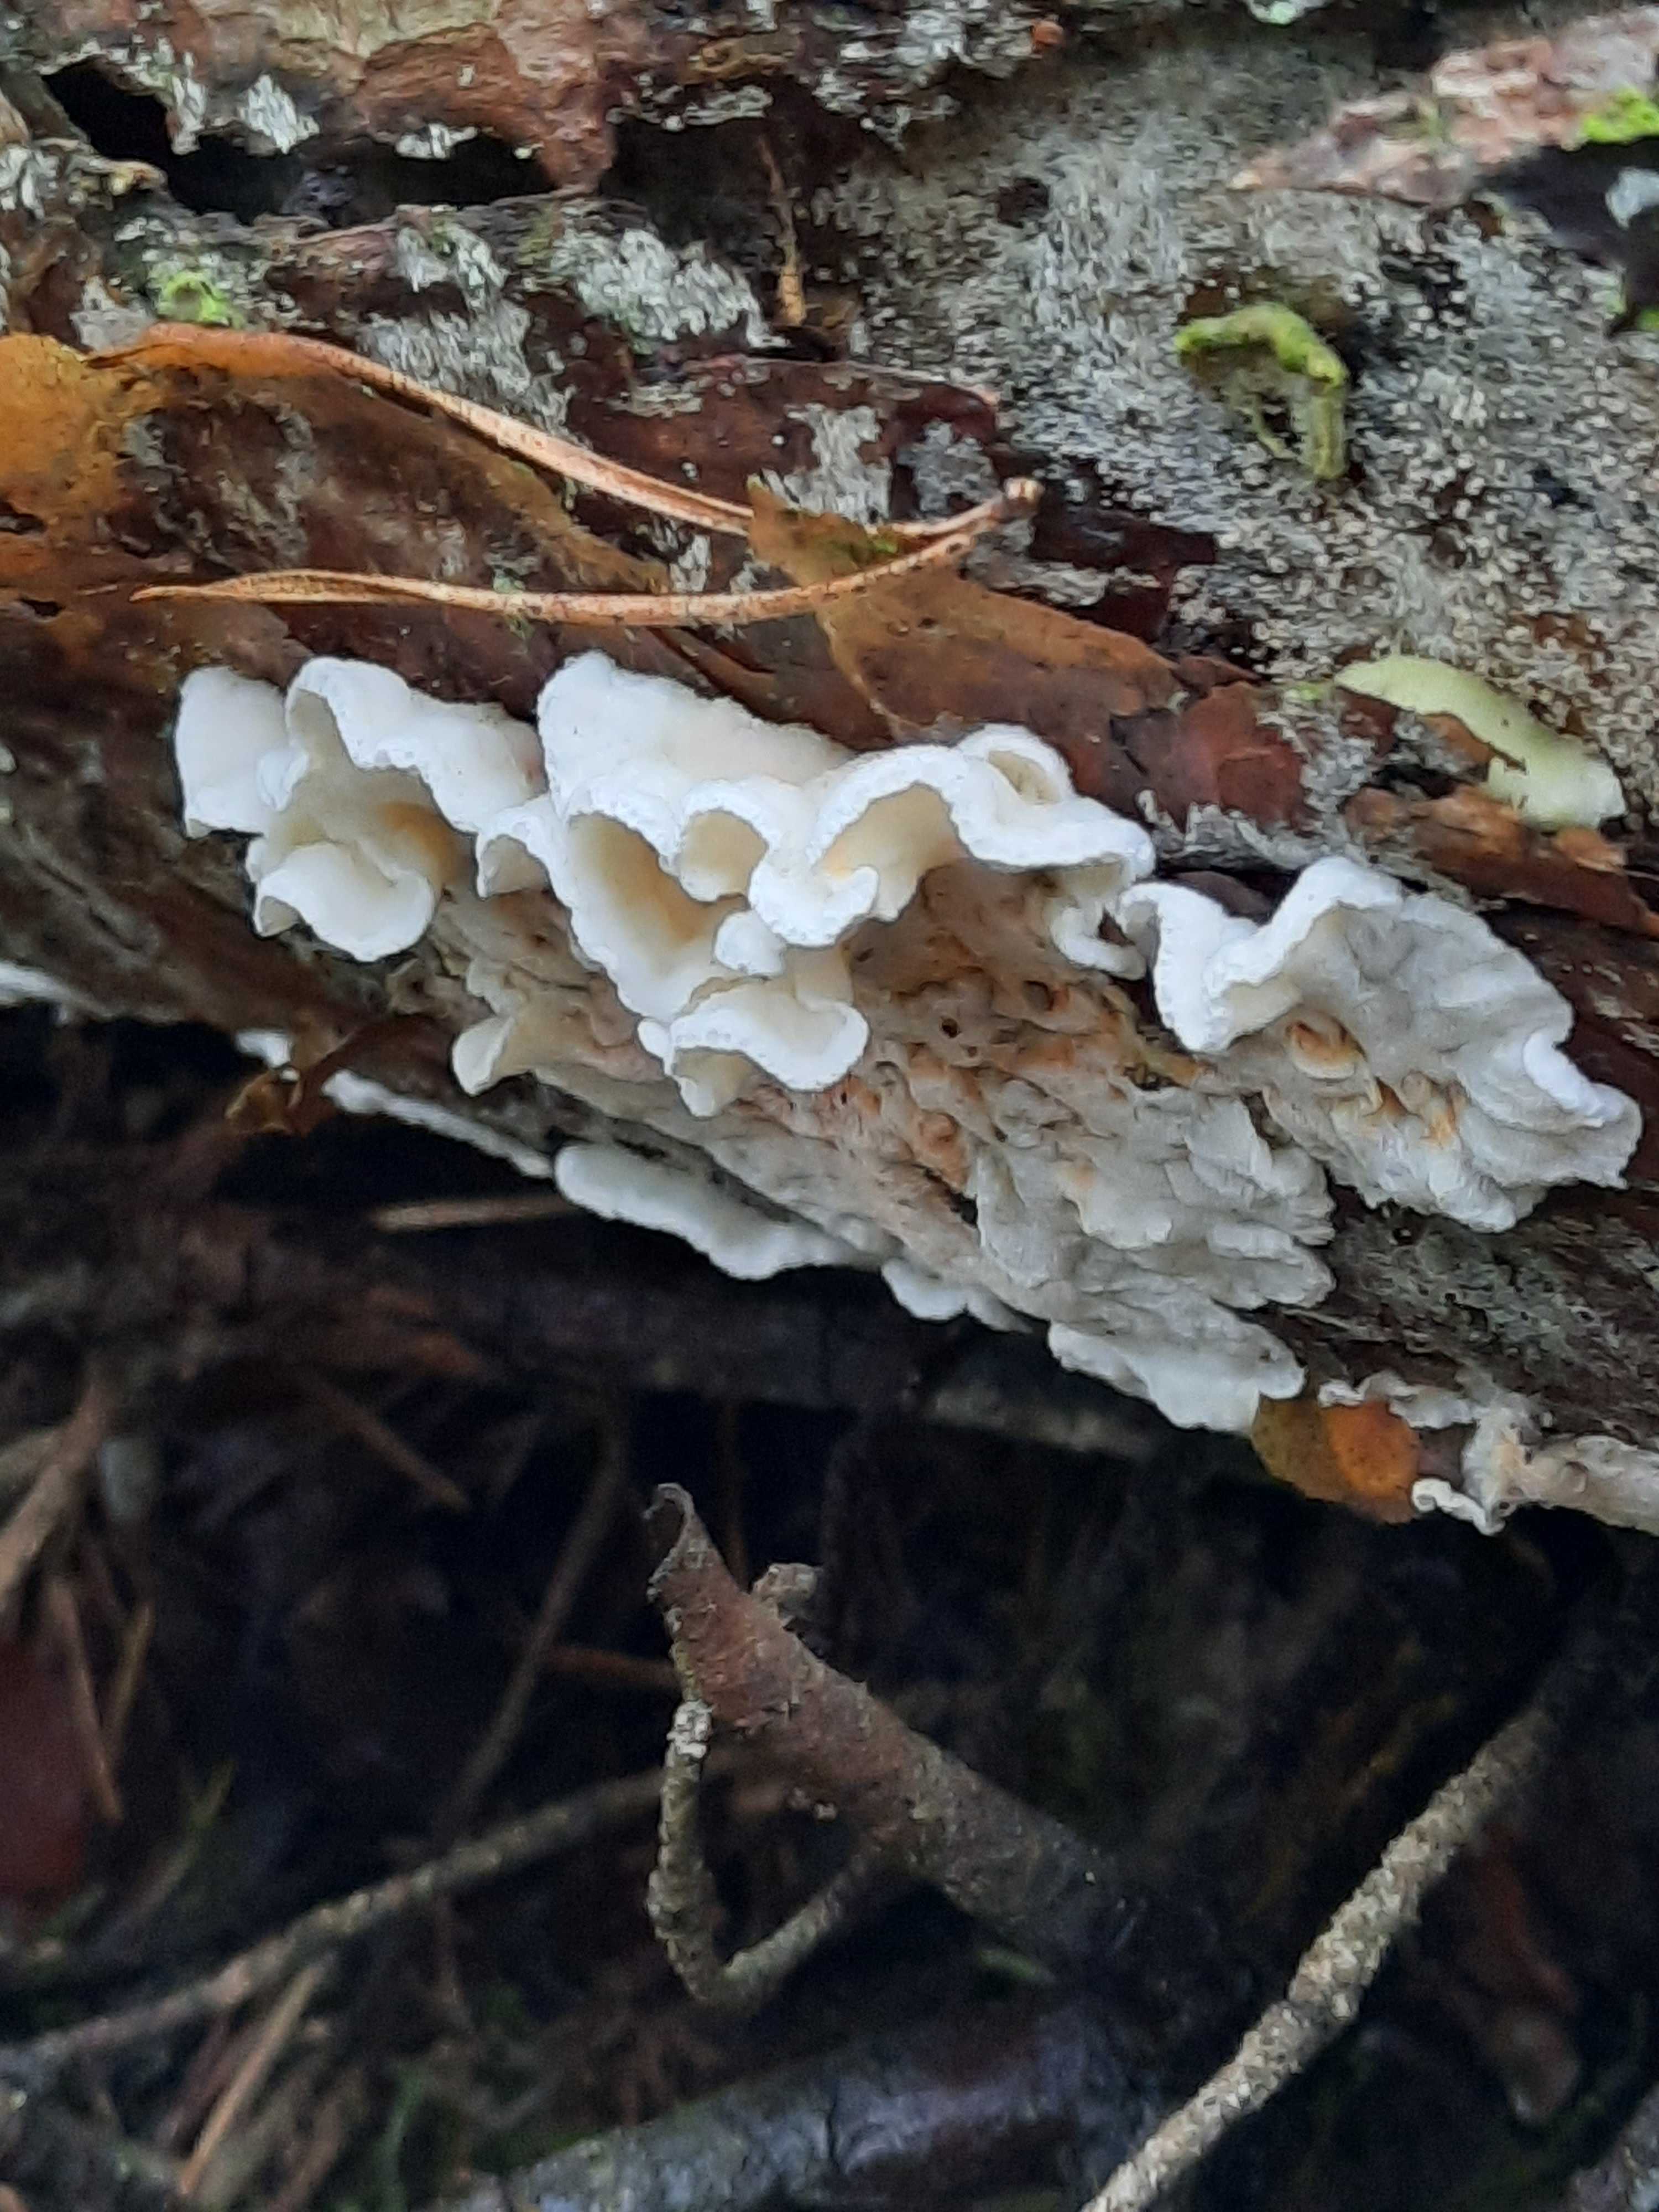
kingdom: Fungi
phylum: Basidiomycota
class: Agaricomycetes
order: Polyporales
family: Incrustoporiaceae
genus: Skeletocutis
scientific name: Skeletocutis amorpha
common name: orange krystalporesvamp
